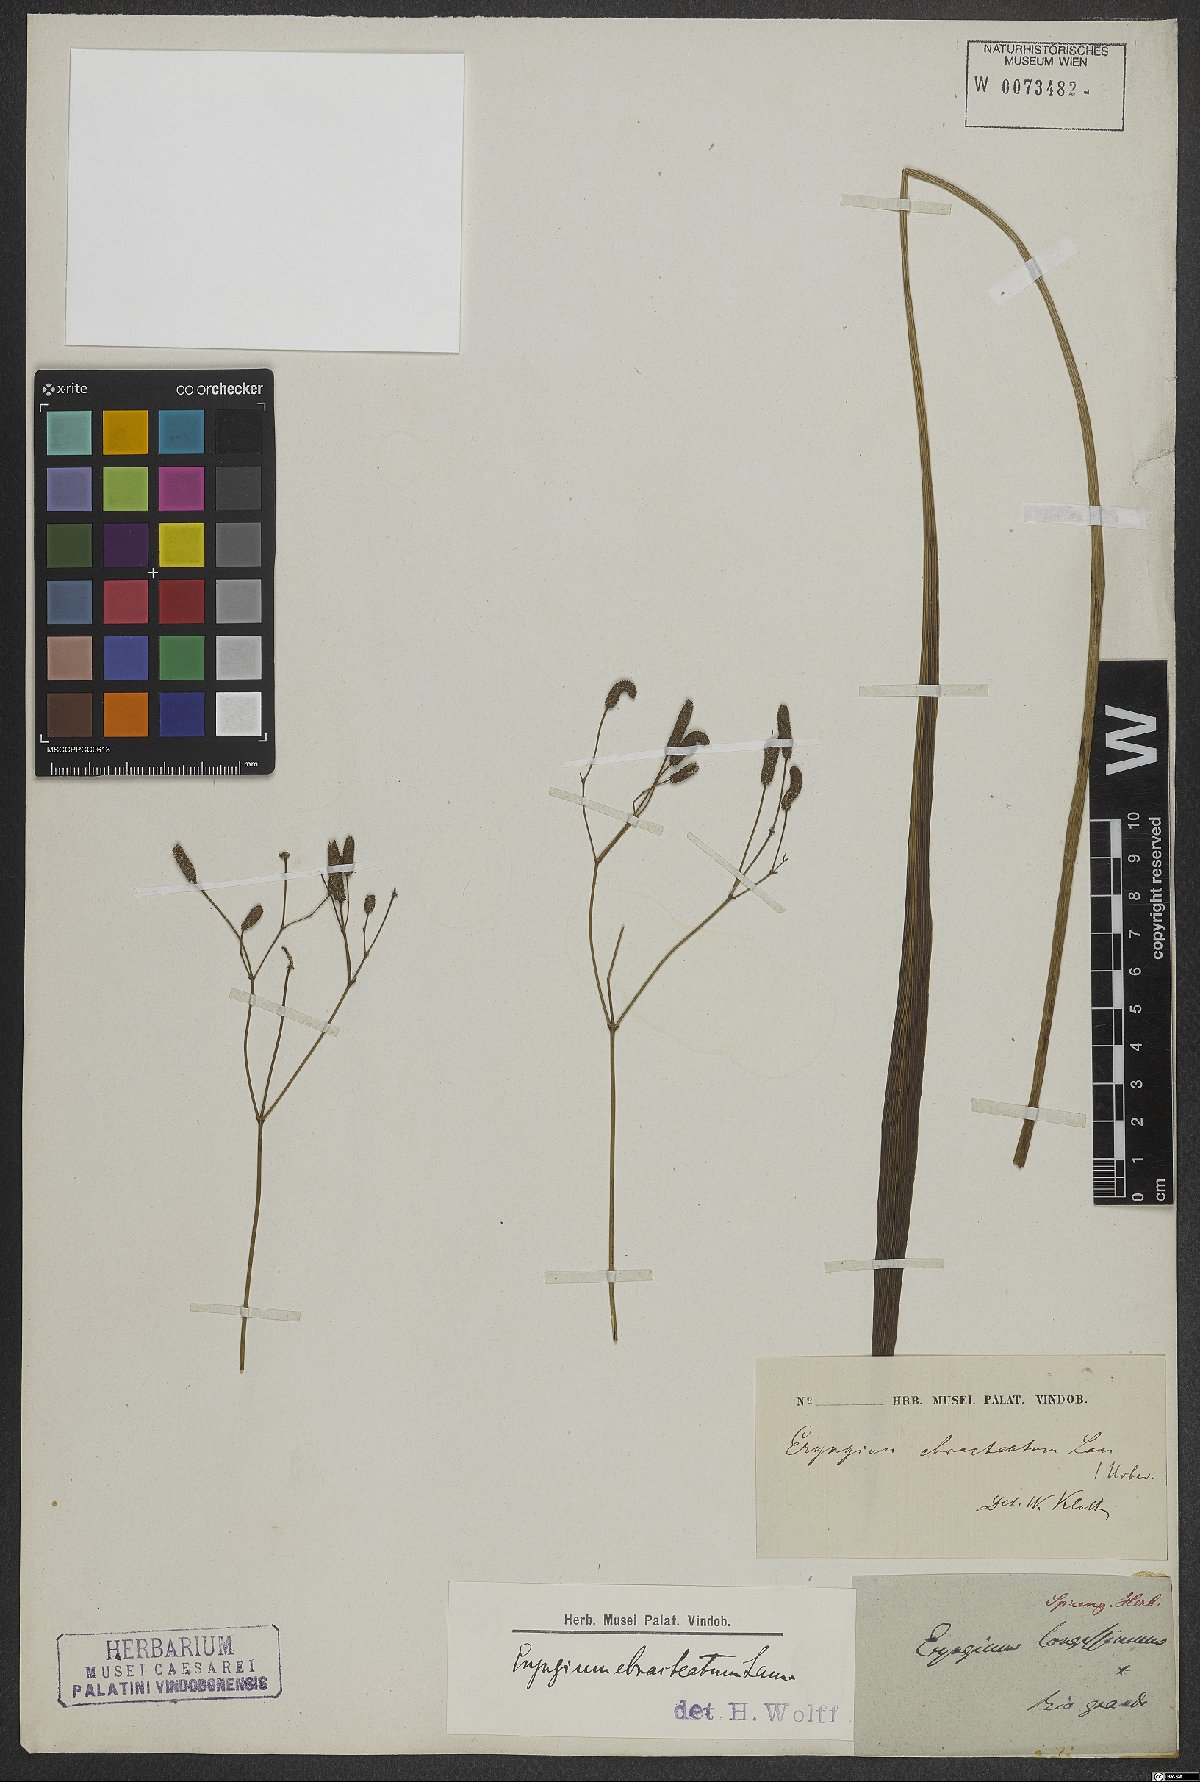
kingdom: Plantae
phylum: Tracheophyta
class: Magnoliopsida
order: Apiales
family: Apiaceae
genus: Eryngium
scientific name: Eryngium ebracteatum
